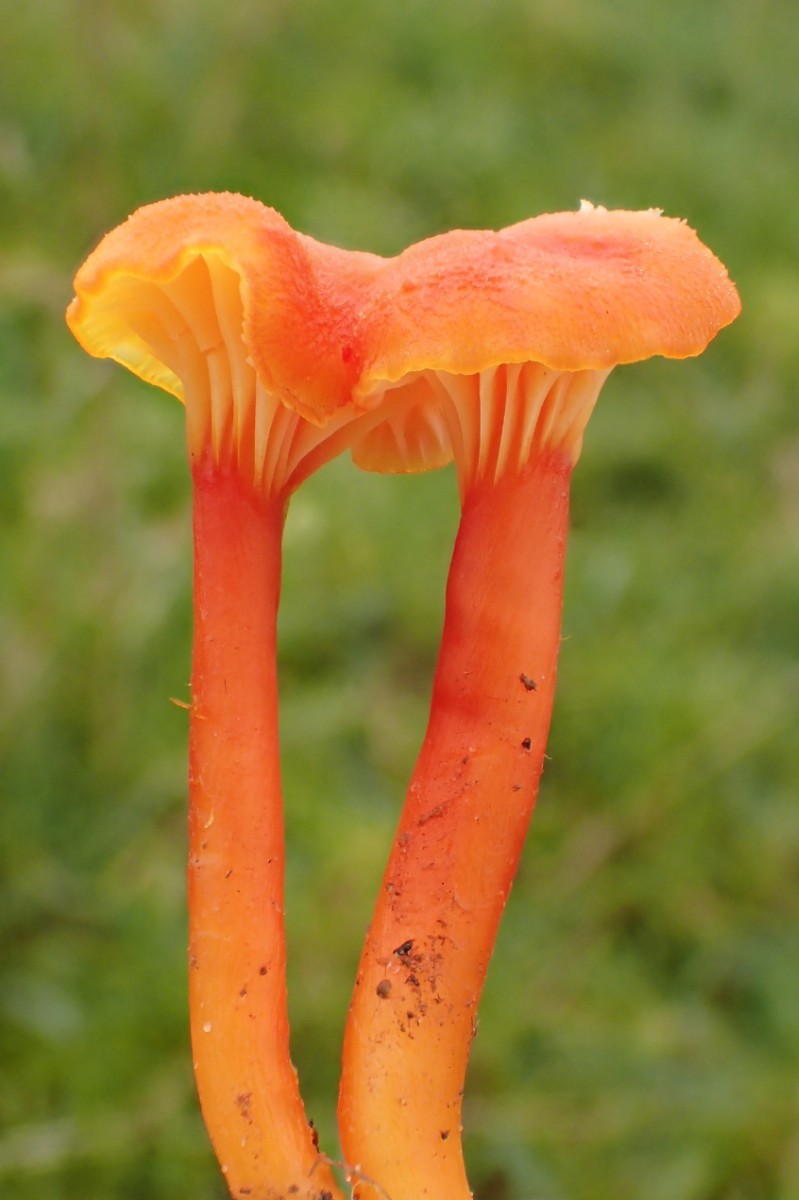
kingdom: Fungi
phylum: Basidiomycota
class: Agaricomycetes
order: Agaricales
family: Hygrophoraceae
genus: Hygrocybe
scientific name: Hygrocybe cantharellus
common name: kantarel-vokshat
